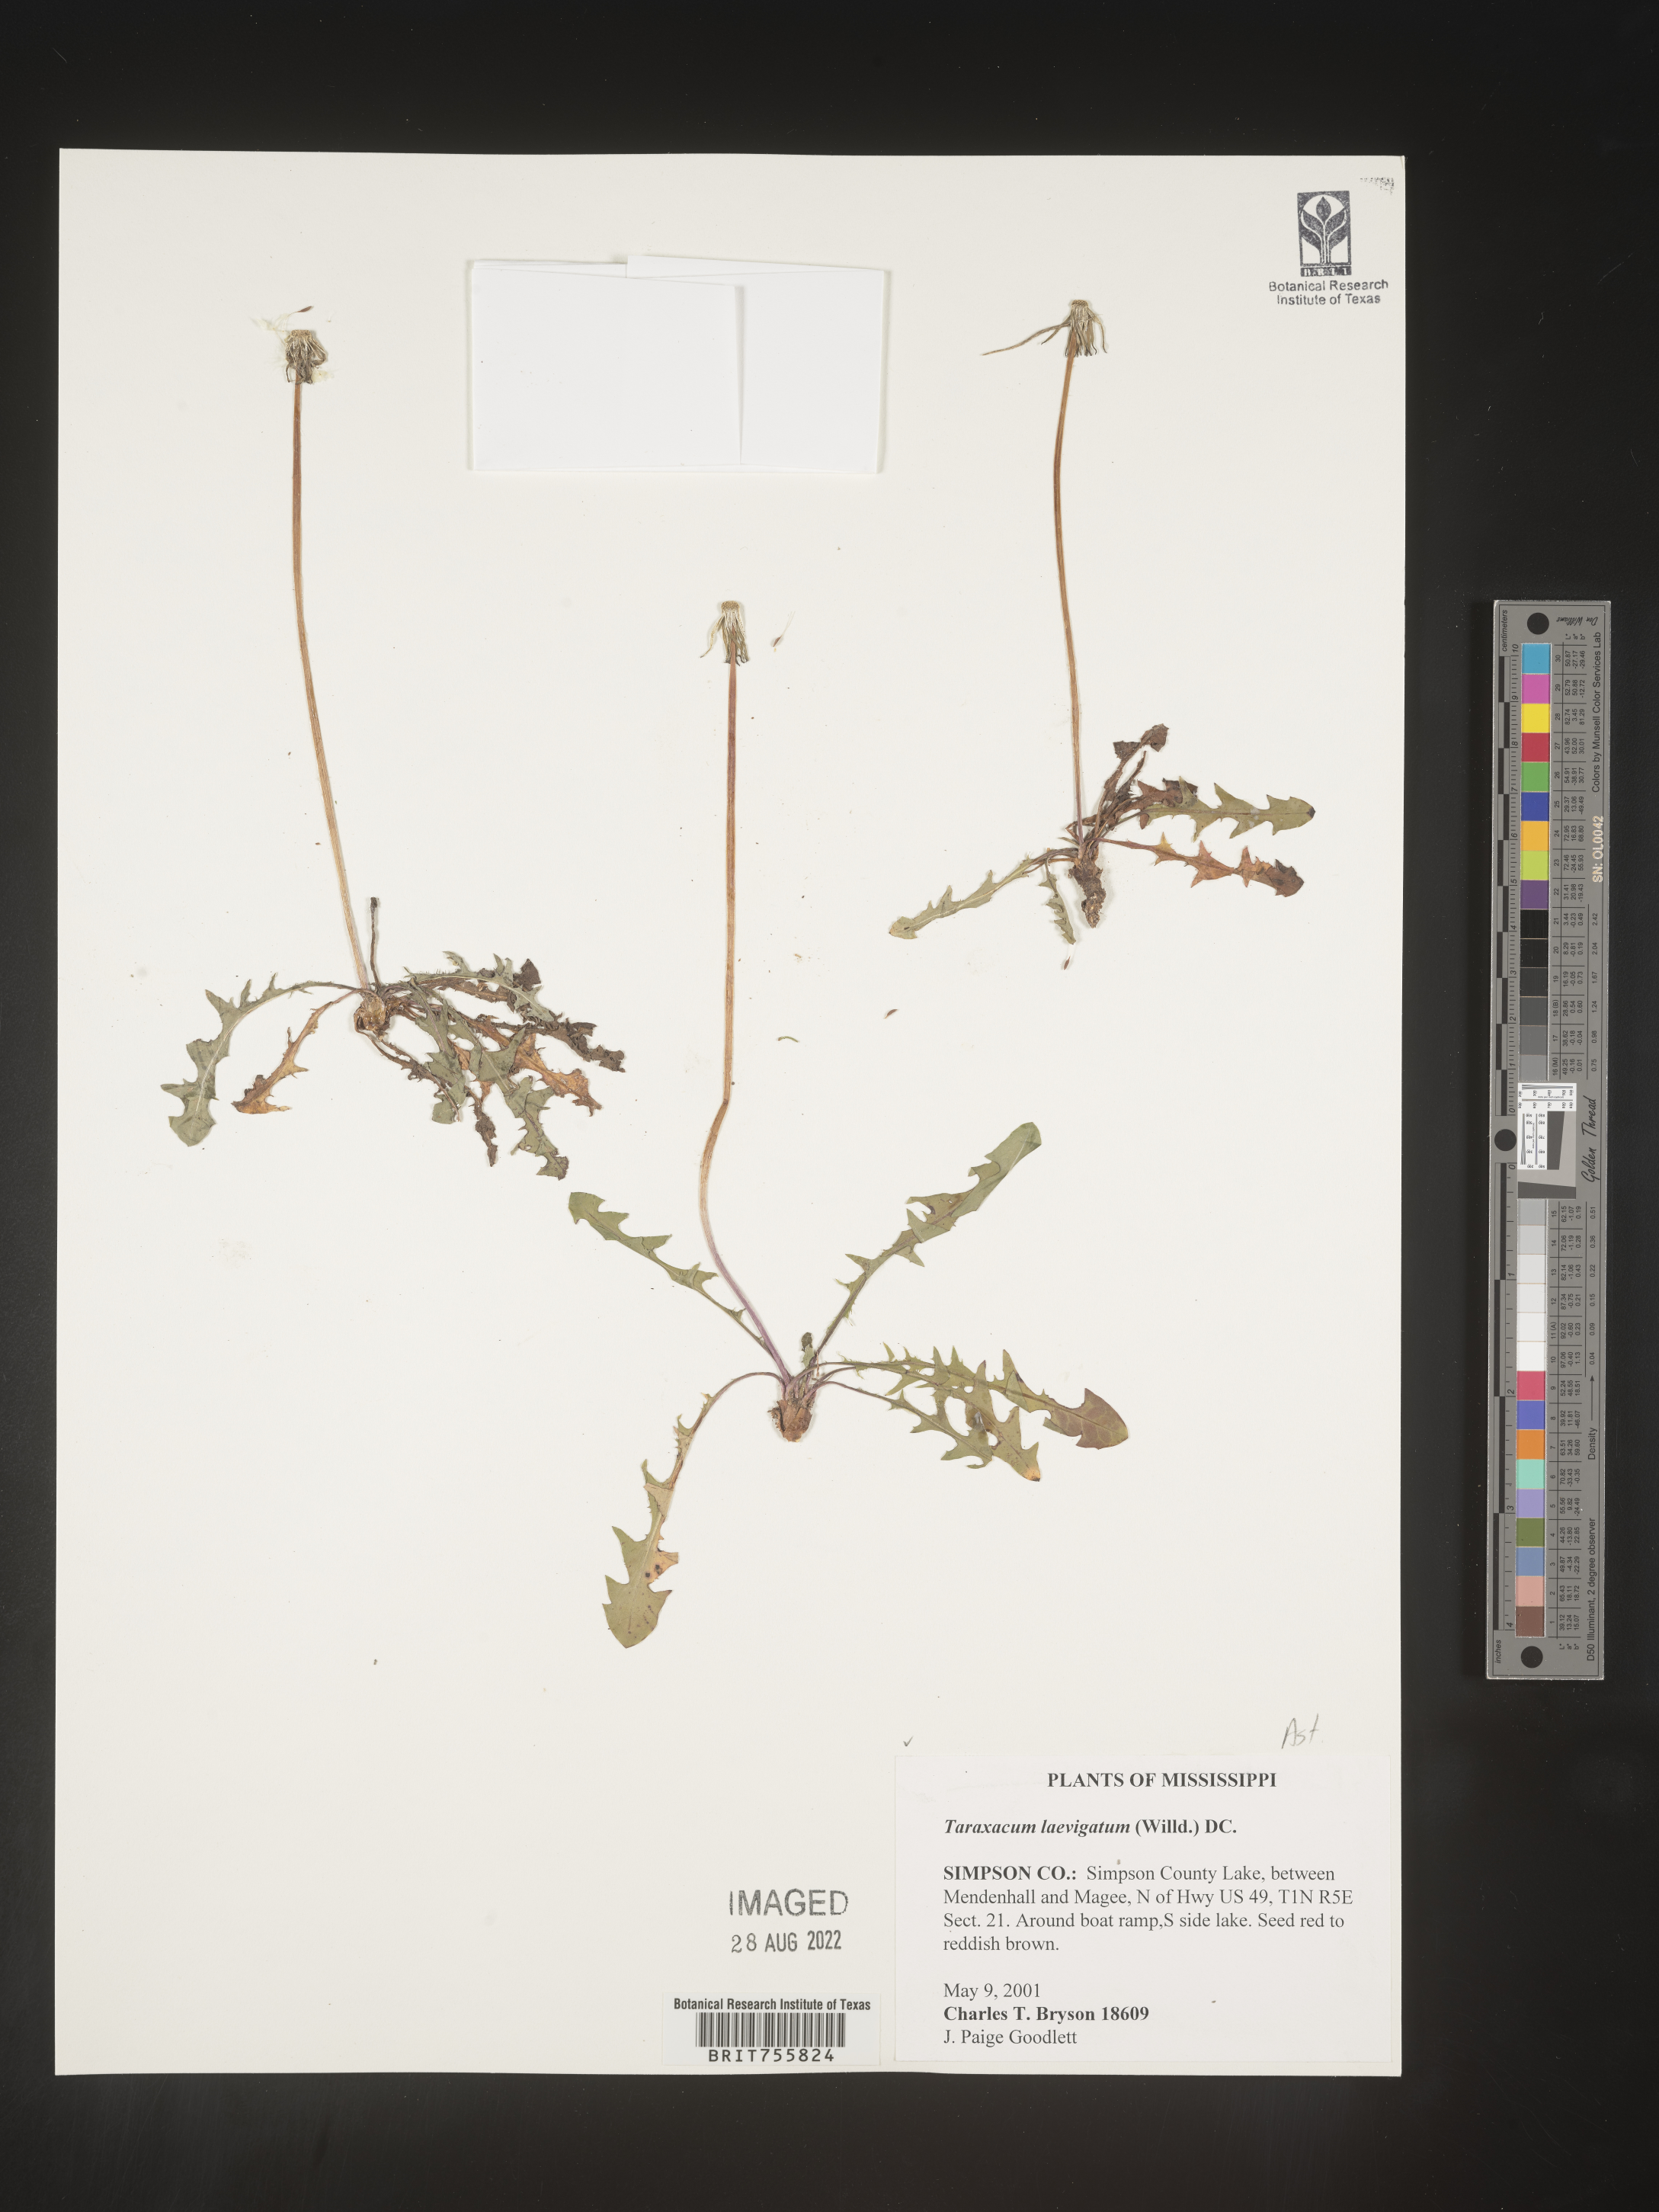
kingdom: Plantae
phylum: Tracheophyta
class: Magnoliopsida
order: Asterales
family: Asteraceae
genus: Taraxacum
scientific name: Taraxacum
